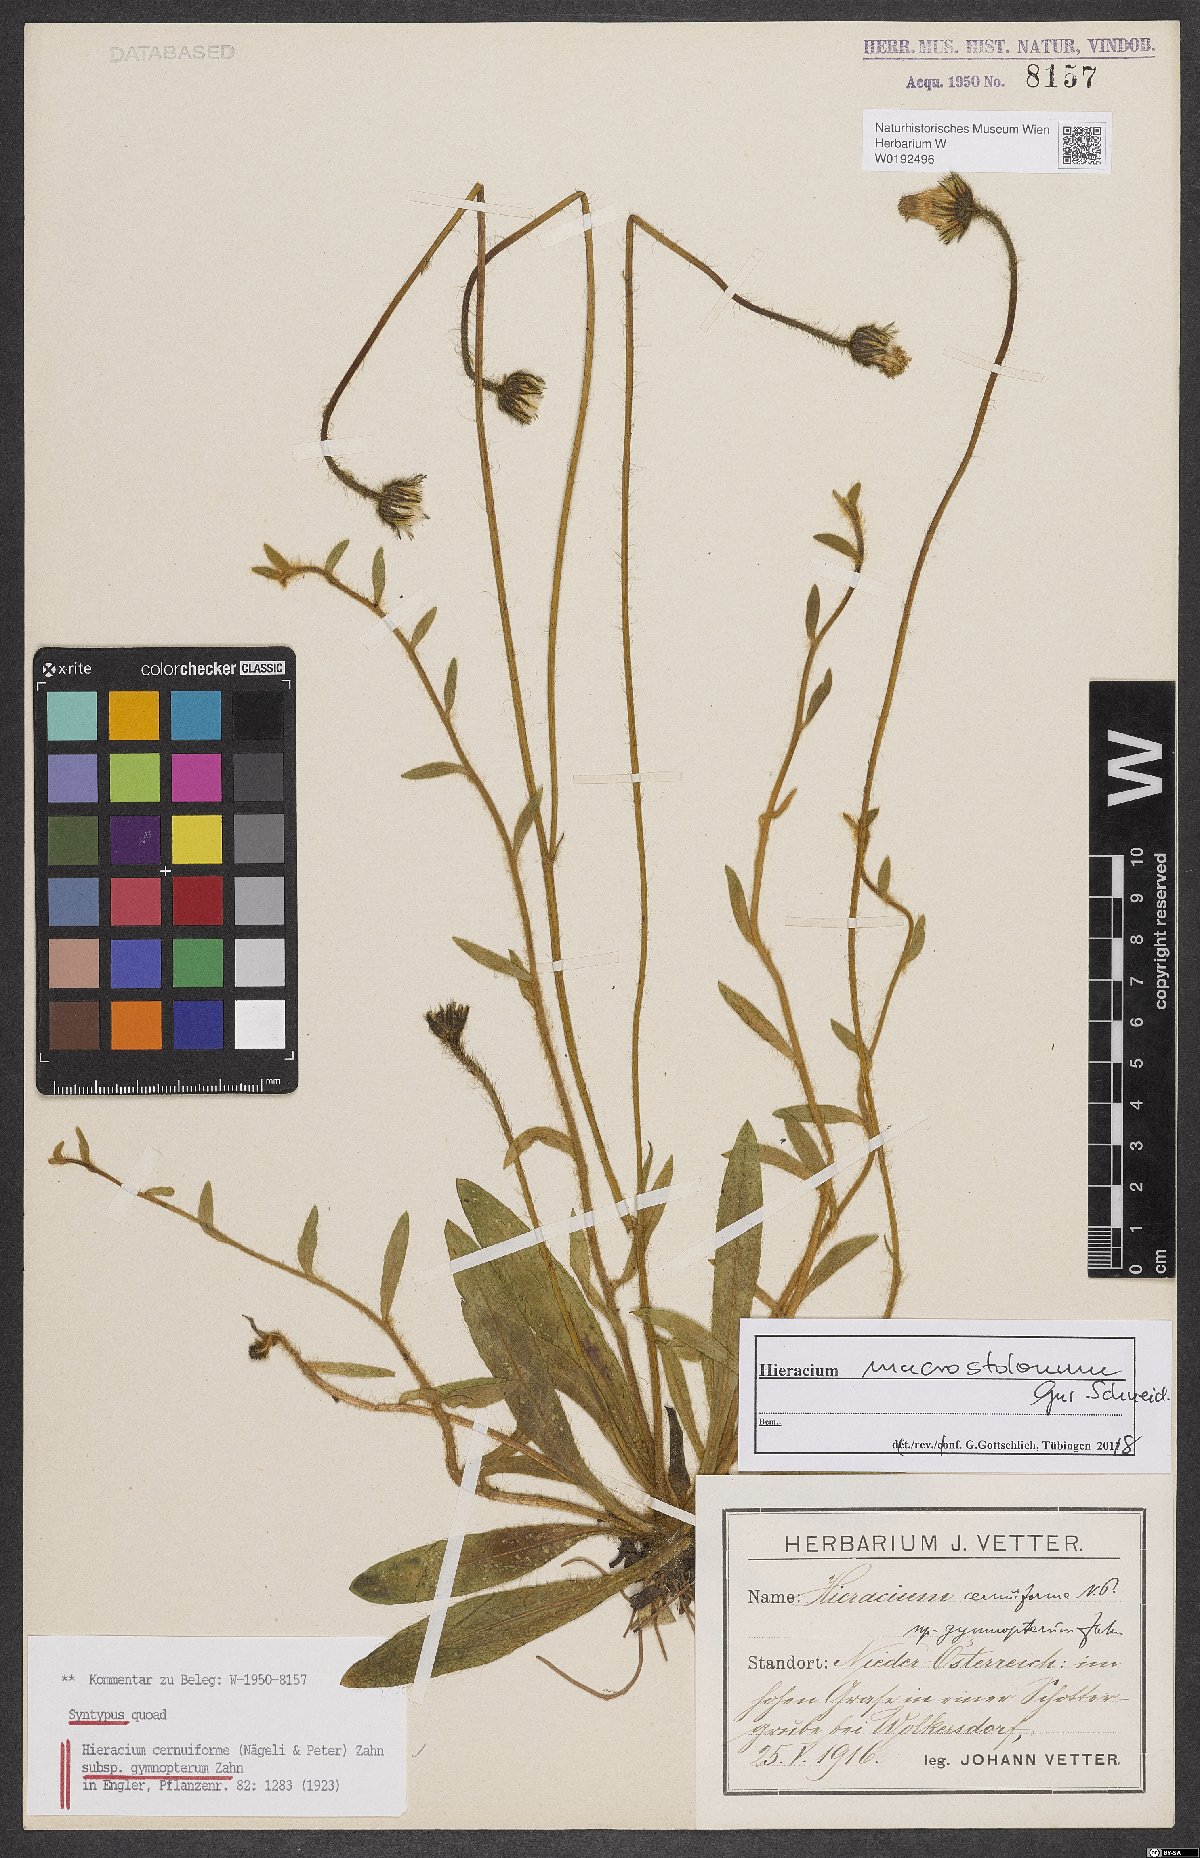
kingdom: Plantae
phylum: Tracheophyta
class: Magnoliopsida
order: Asterales
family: Asteraceae
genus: Hieracium
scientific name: Hieracium cernuiforme
